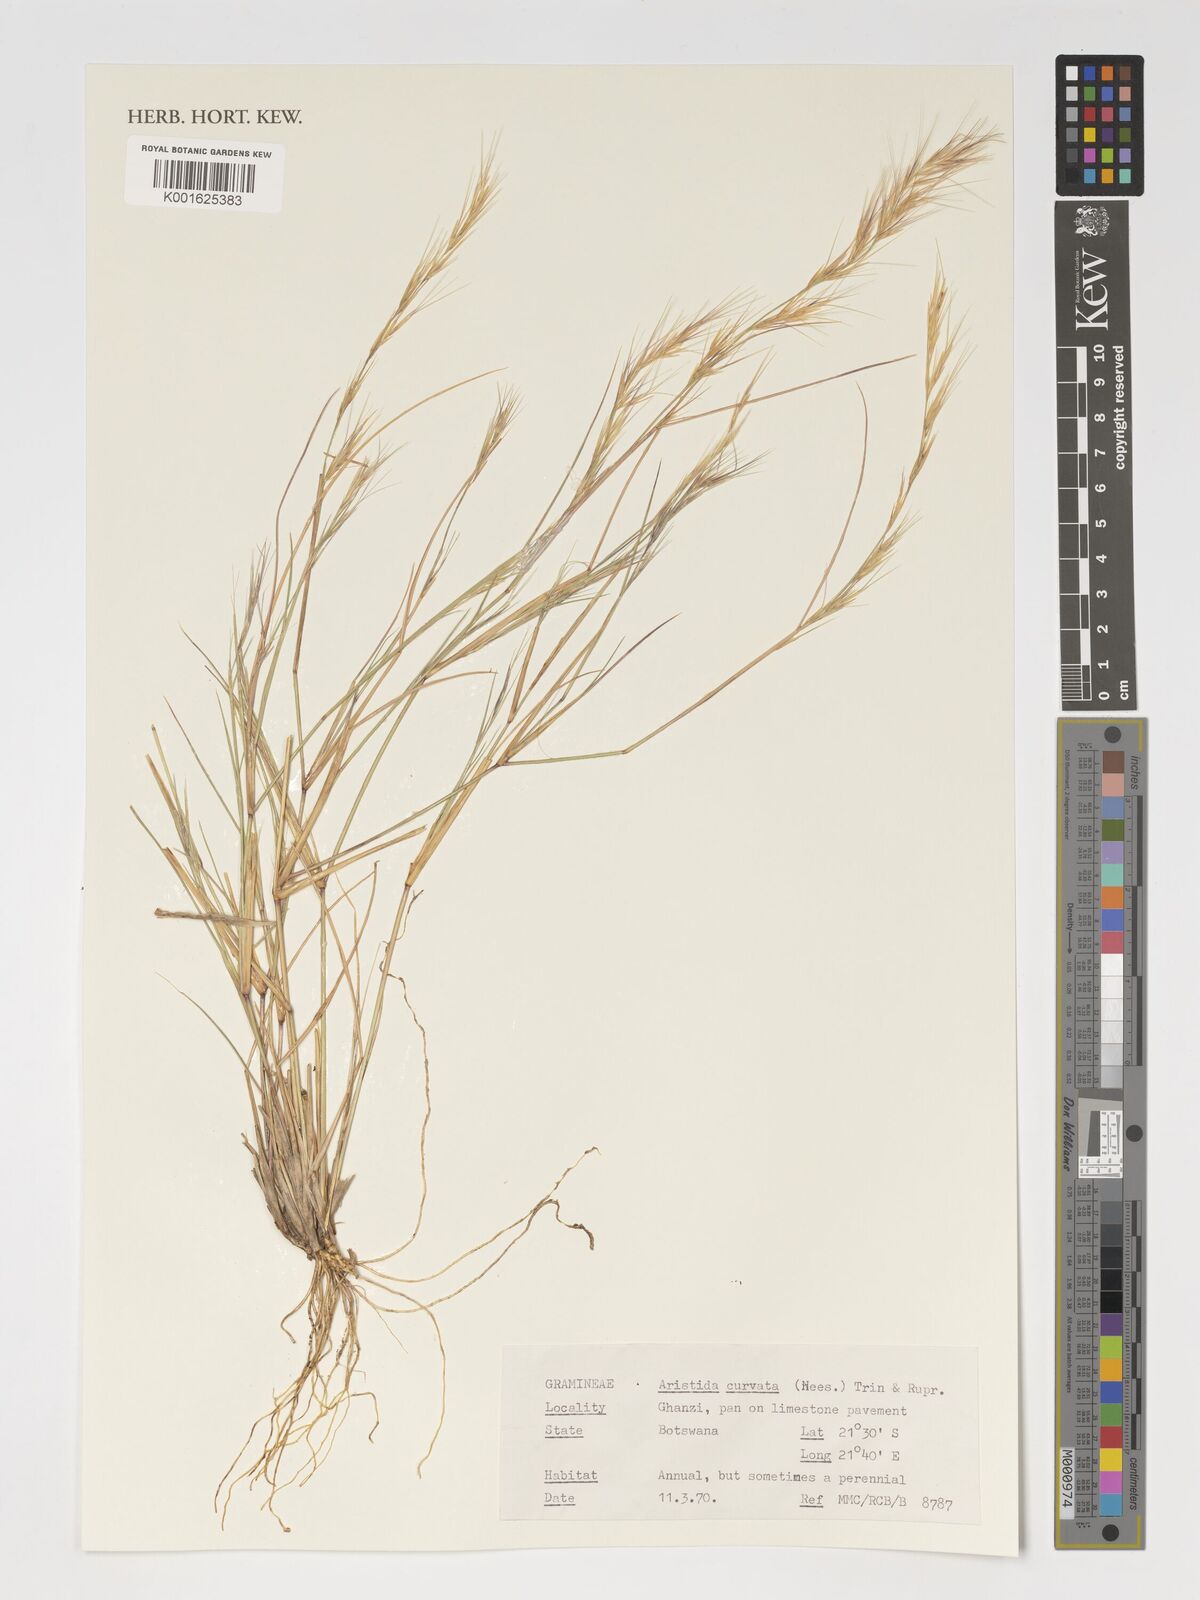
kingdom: Plantae
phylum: Tracheophyta
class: Liliopsida
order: Poales
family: Poaceae
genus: Aristida
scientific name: Aristida adscensionis
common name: Sixweeks threeawn
